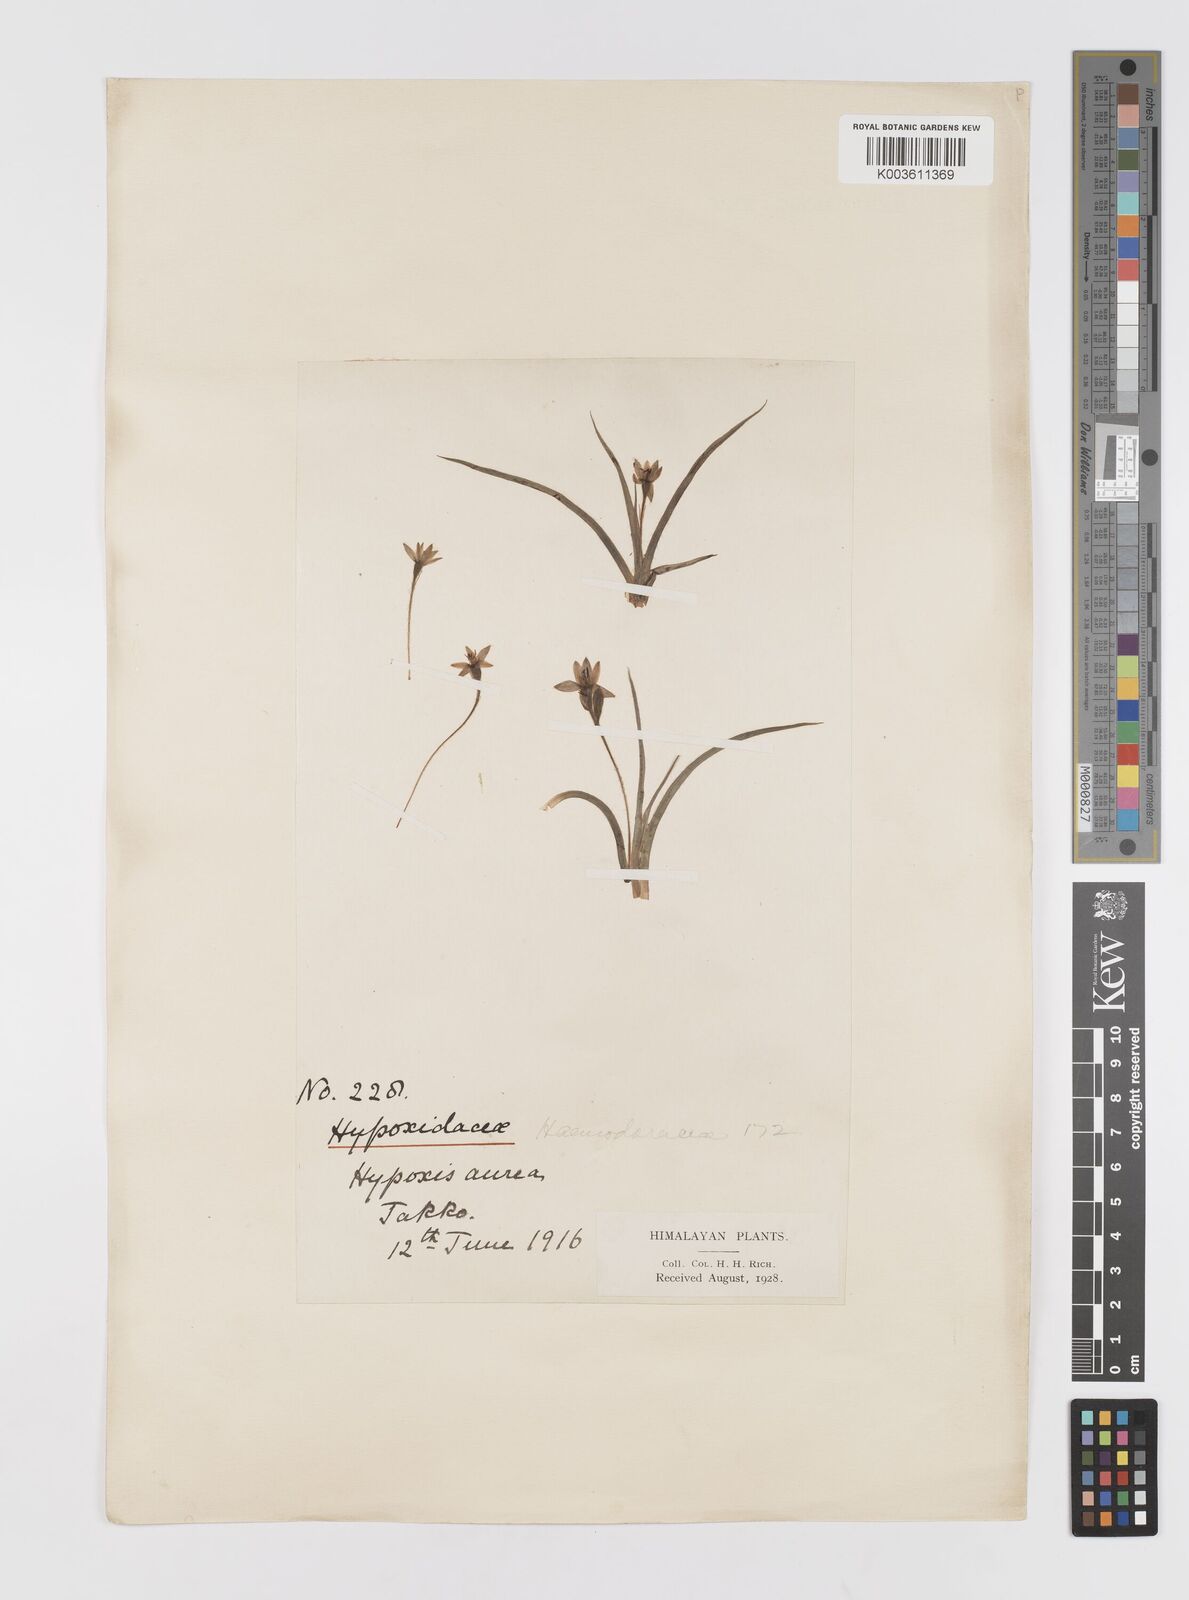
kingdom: Plantae
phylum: Tracheophyta
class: Liliopsida
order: Asparagales
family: Hypoxidaceae
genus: Hypoxis
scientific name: Hypoxis aurea
